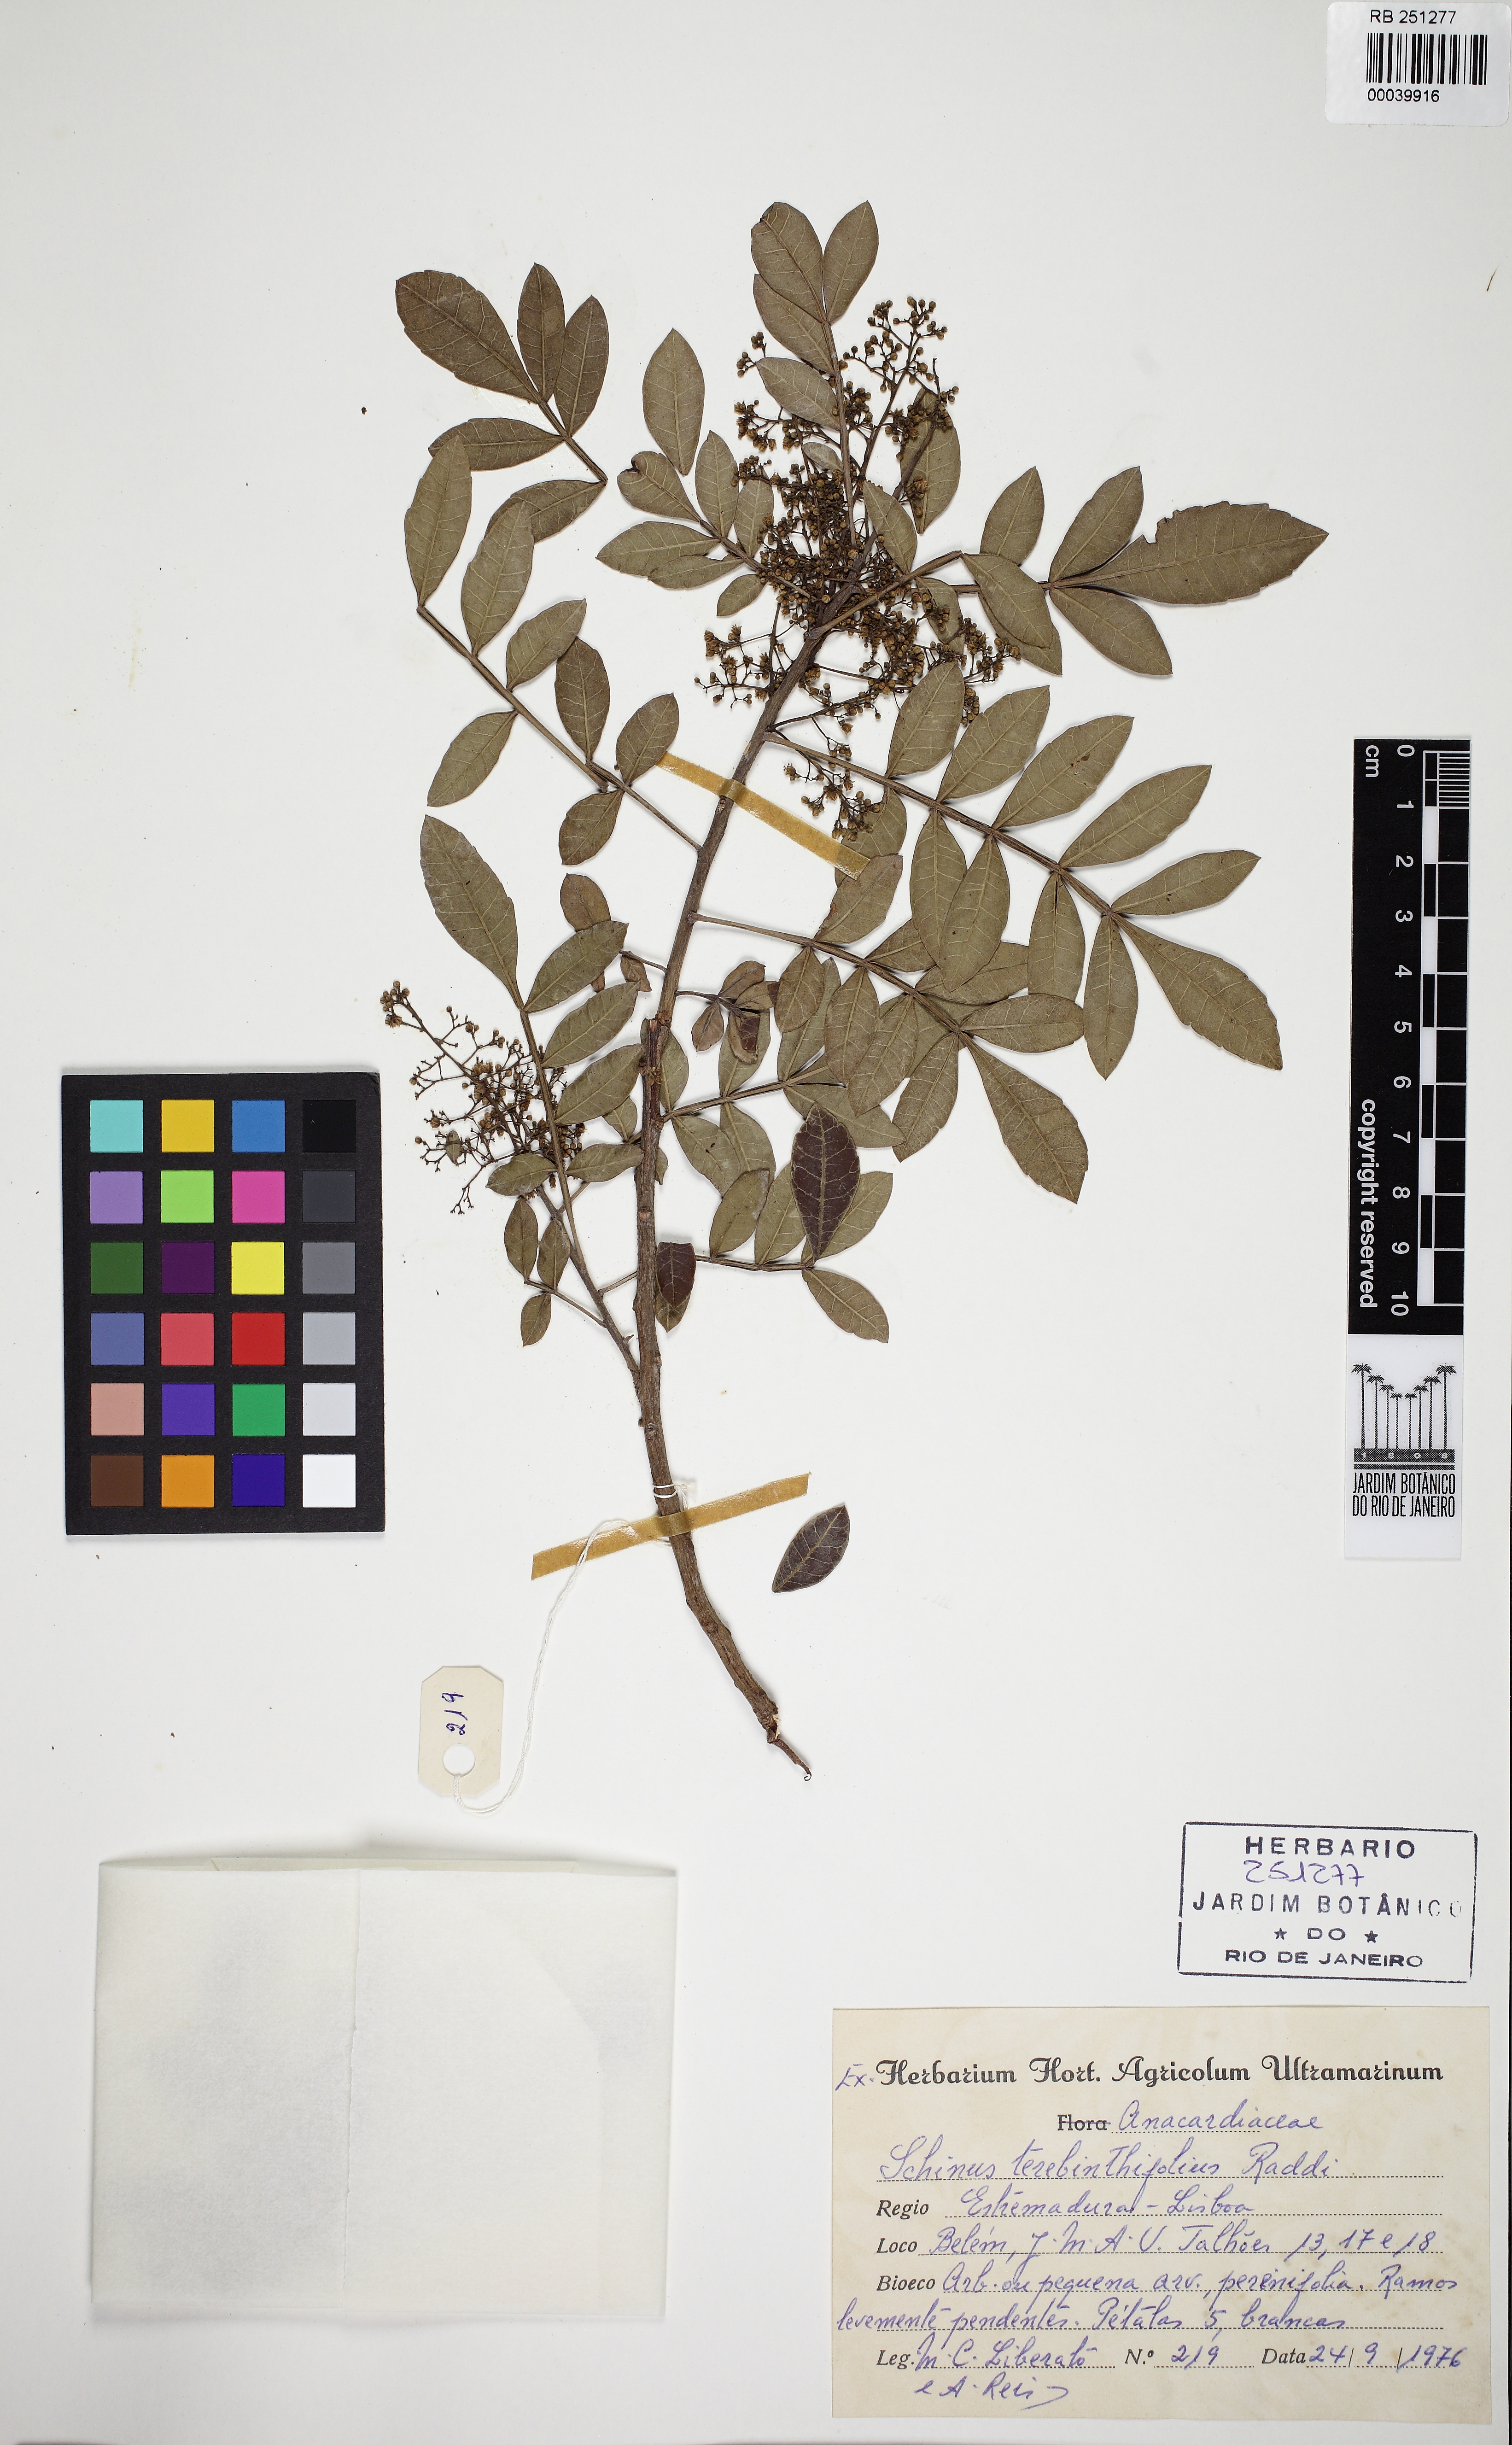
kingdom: Plantae
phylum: Tracheophyta
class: Magnoliopsida
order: Sapindales
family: Anacardiaceae
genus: Schinus
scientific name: Schinus terebinthifolia
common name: Brazilian peppertree
